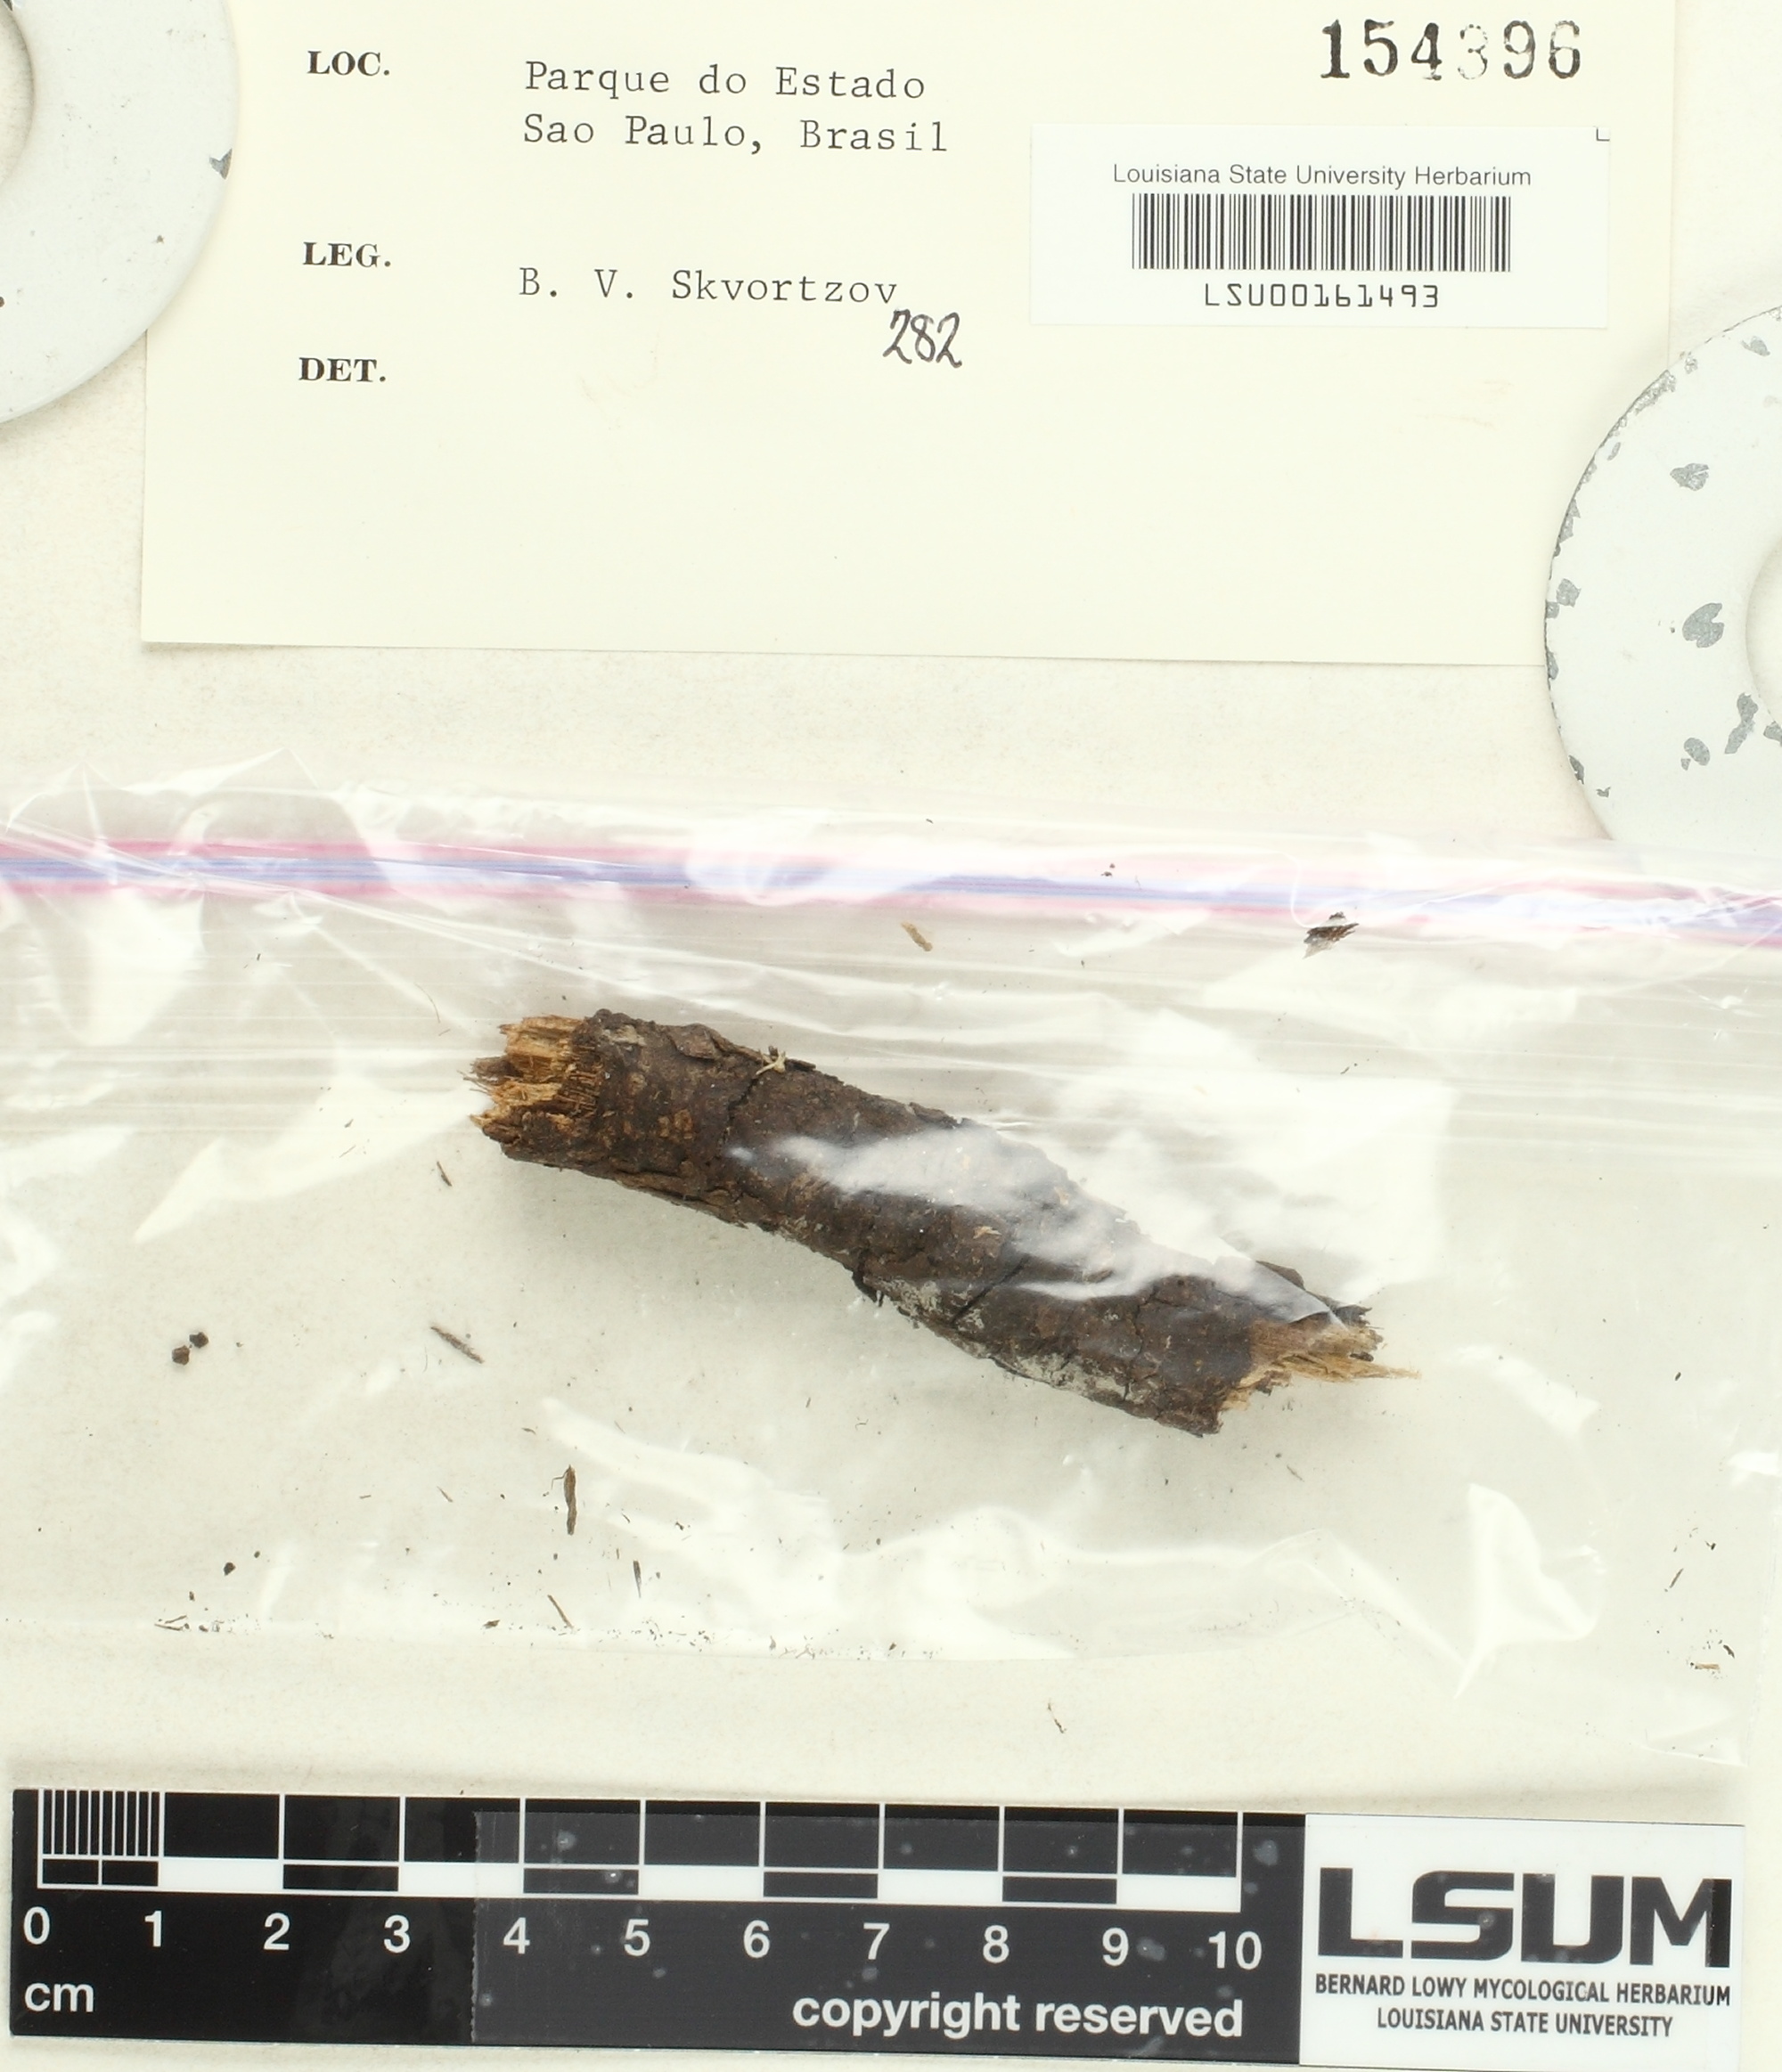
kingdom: Fungi
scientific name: Fungi
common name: Fungi
